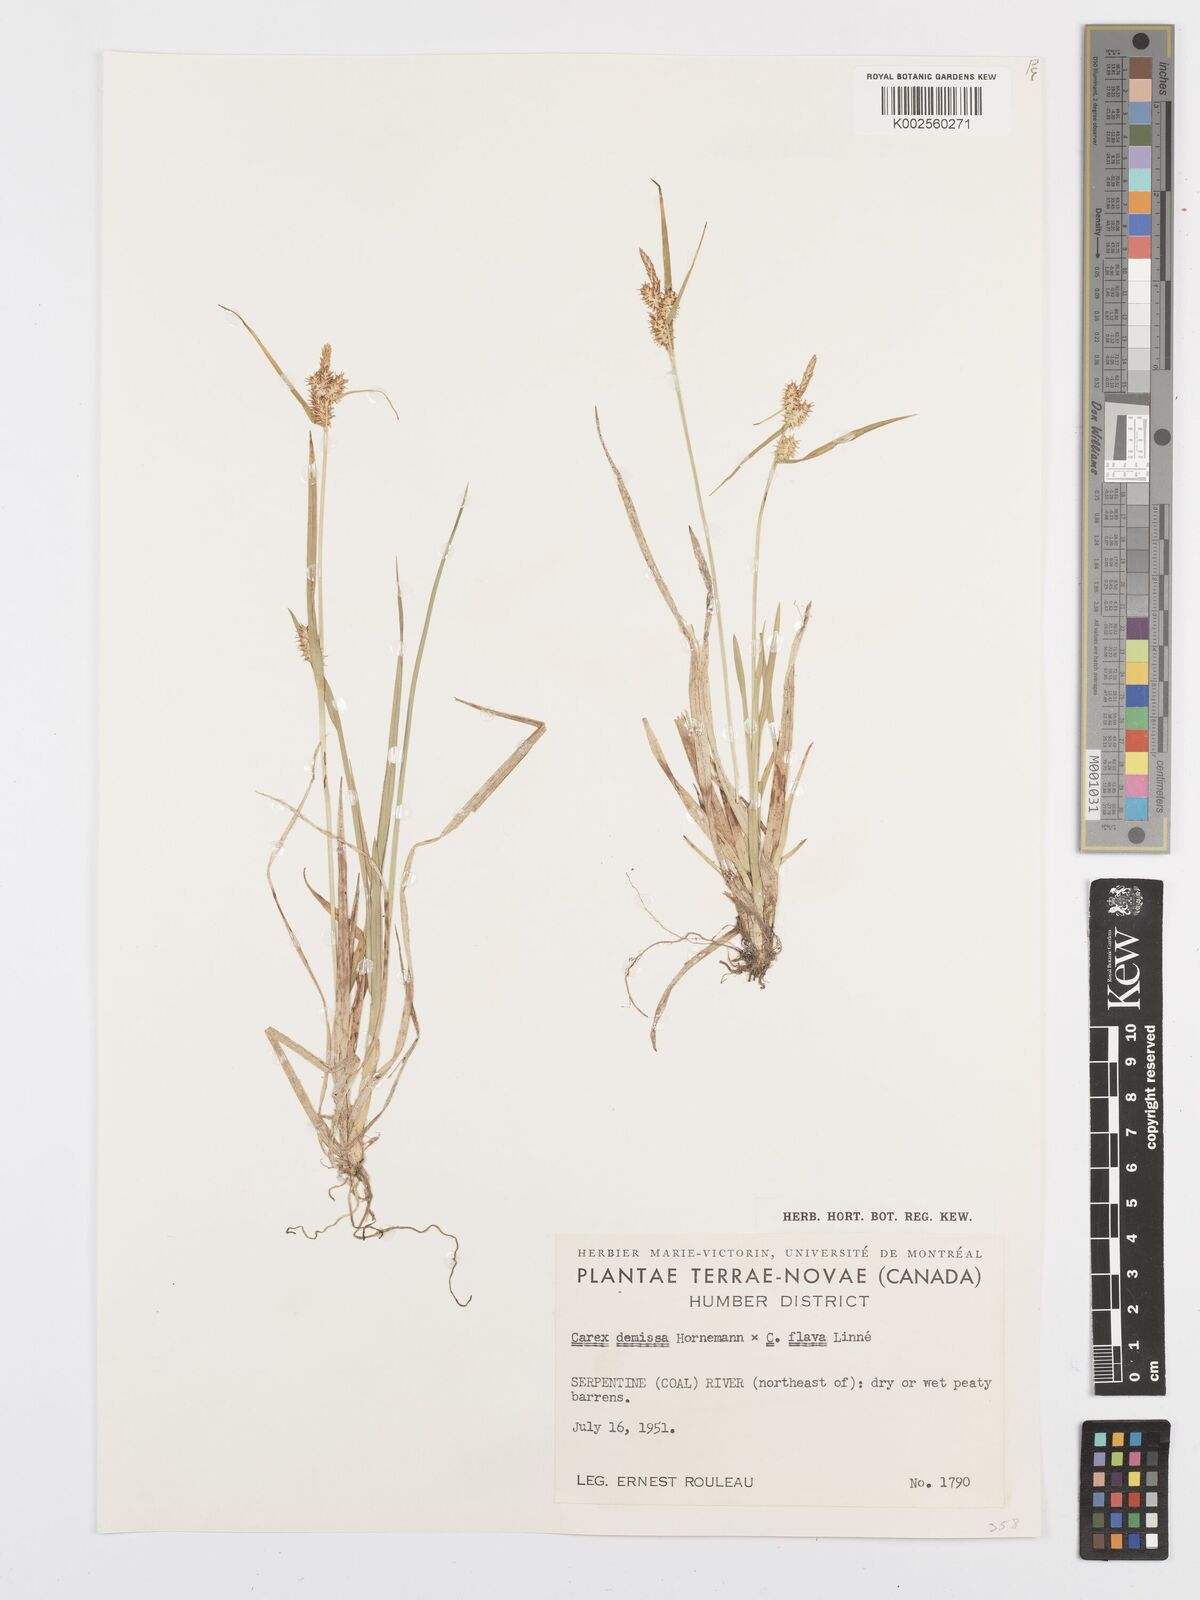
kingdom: Plantae
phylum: Tracheophyta
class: Liliopsida
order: Poales
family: Cyperaceae
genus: Carex
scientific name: Carex flava
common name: Large yellow-sedge
